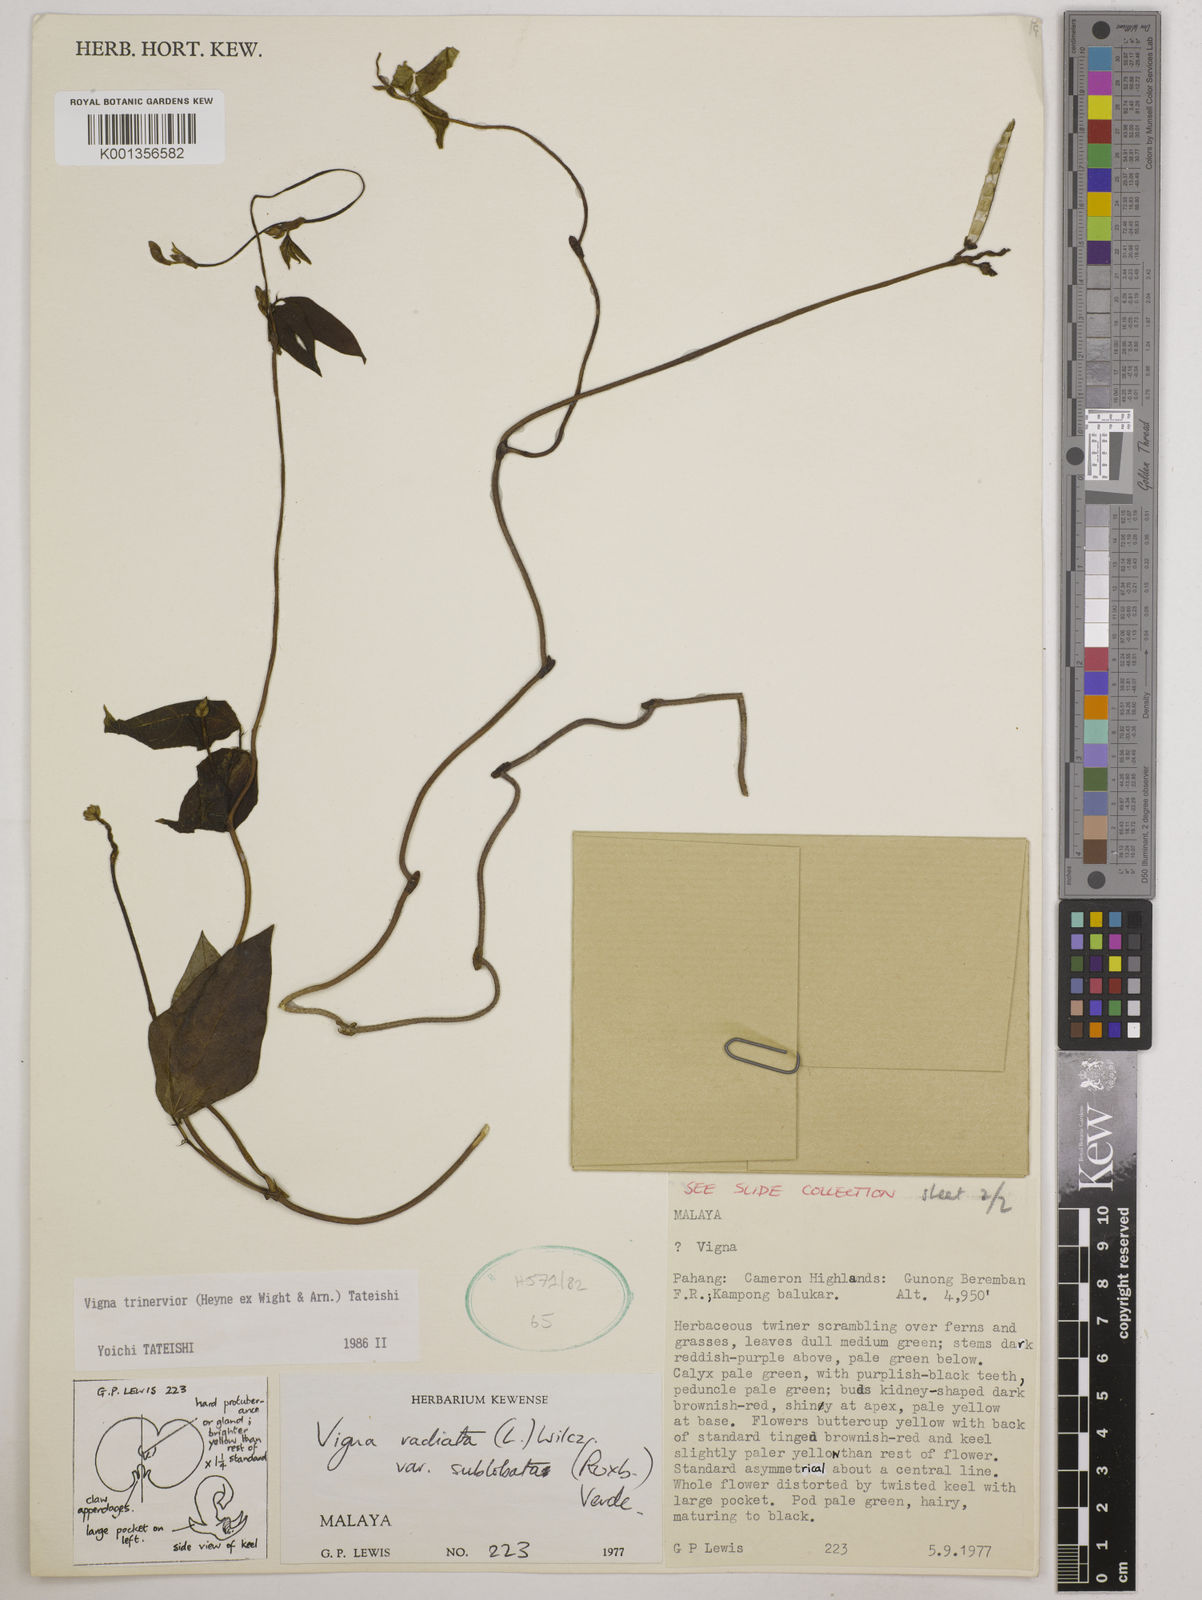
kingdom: Plantae
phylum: Tracheophyta
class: Magnoliopsida
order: Fabales
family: Fabaceae
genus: Vigna
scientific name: Vigna
